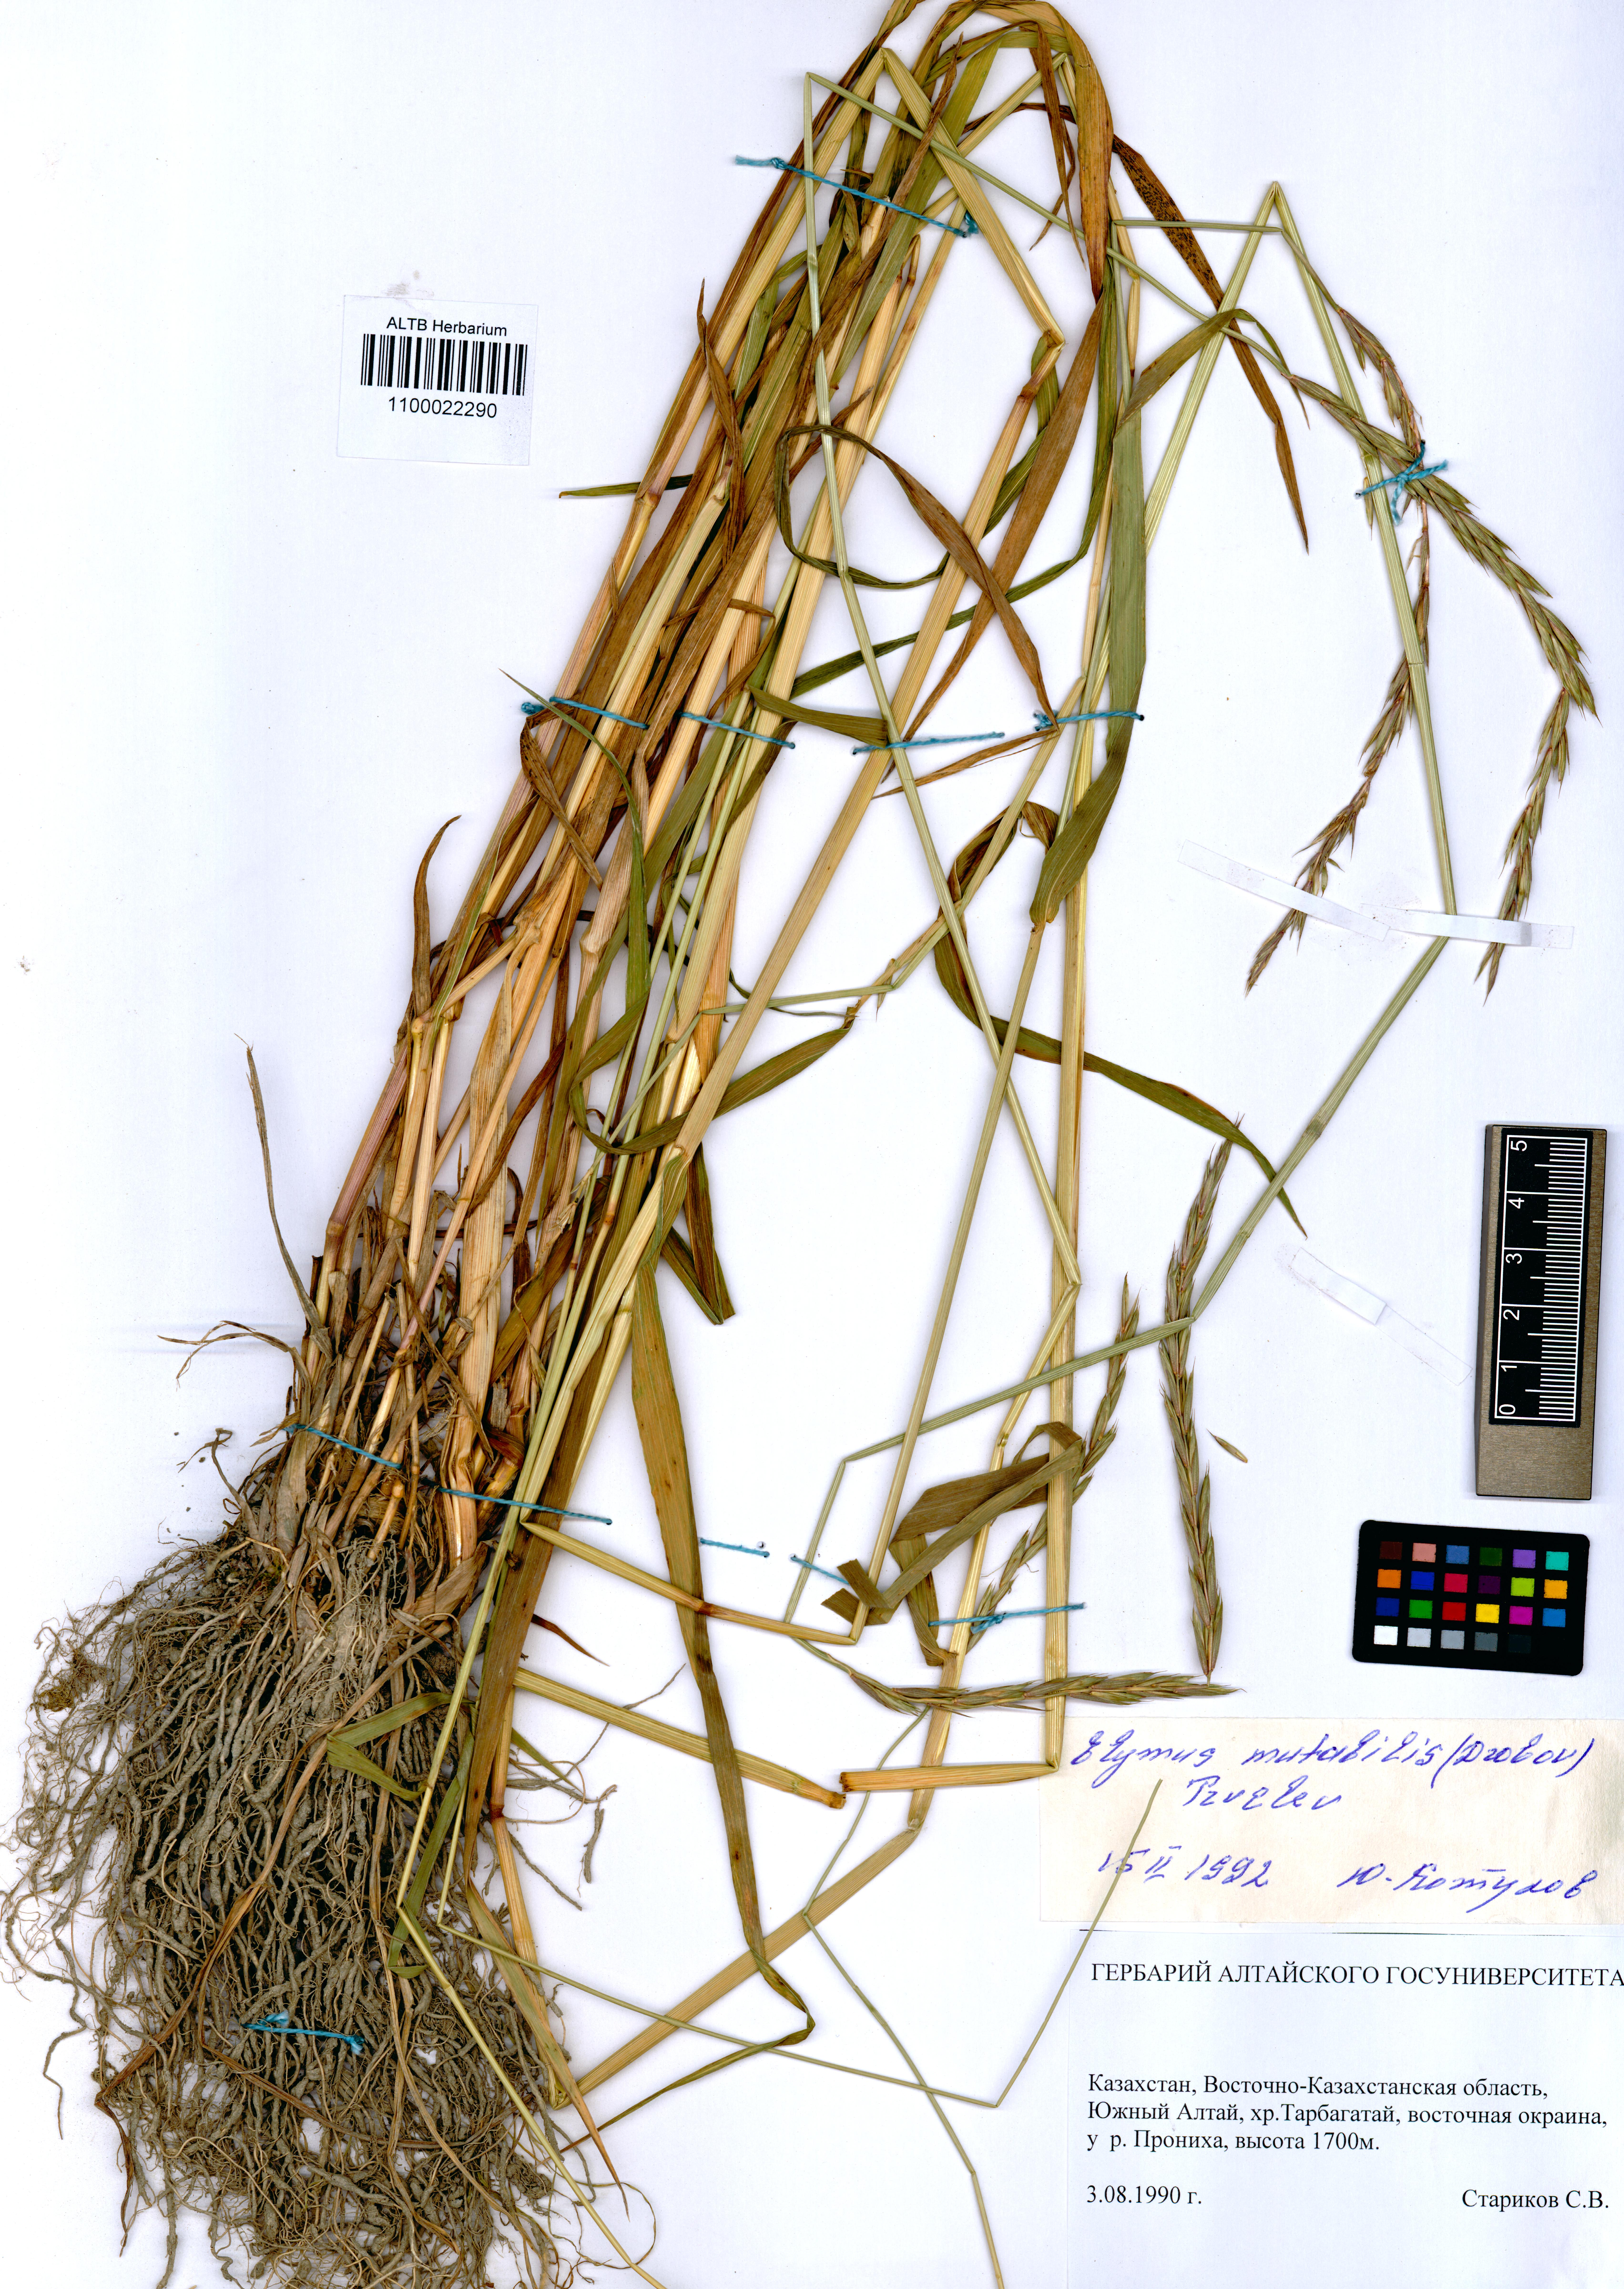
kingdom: Plantae
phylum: Tracheophyta
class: Liliopsida
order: Poales
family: Poaceae
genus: Elymus
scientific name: Elymus mutabilis
